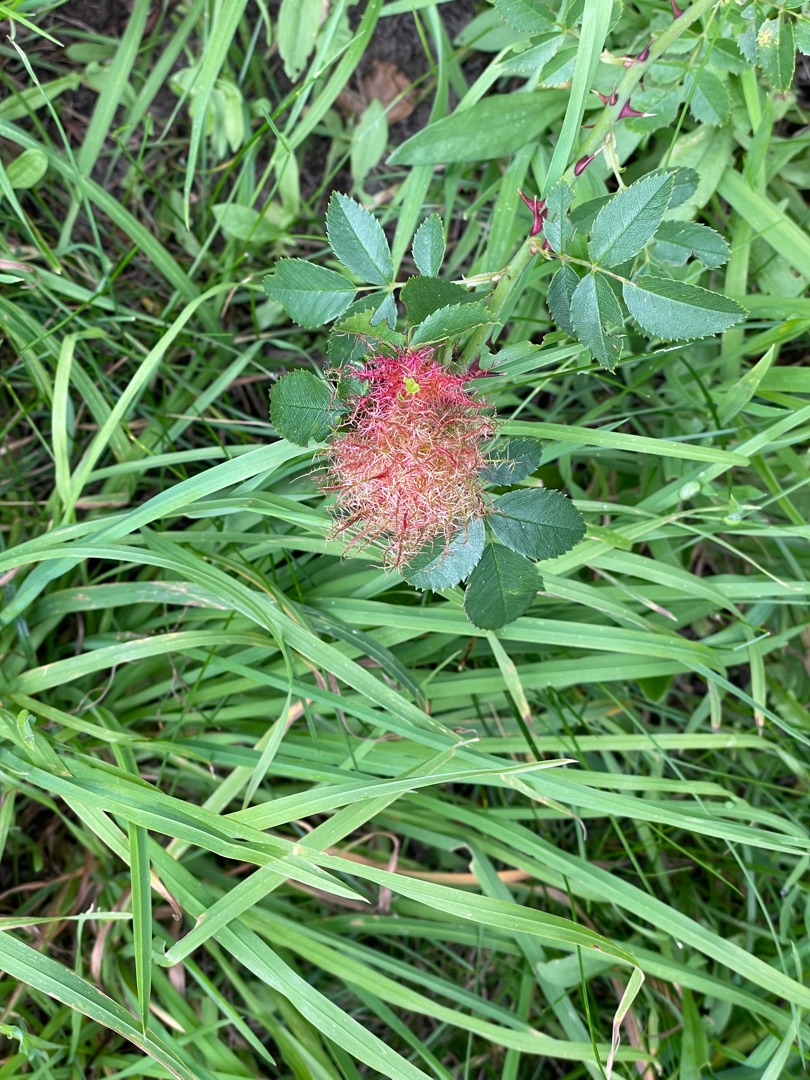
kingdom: Animalia
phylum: Arthropoda
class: Insecta
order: Hymenoptera
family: Cynipidae
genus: Diplolepis
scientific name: Diplolepis rosae
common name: Bedeguargalhveps
